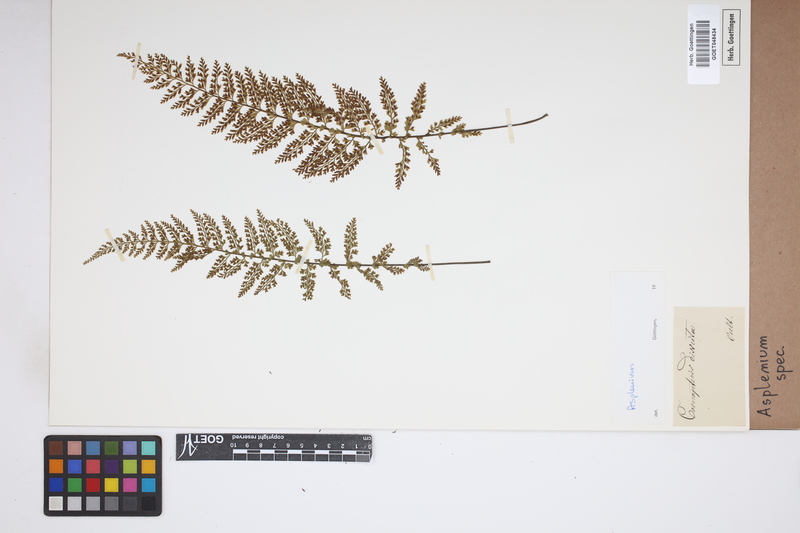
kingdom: Plantae
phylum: Tracheophyta
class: Polypodiopsida
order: Polypodiales
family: Aspleniaceae
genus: Asplenium
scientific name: Asplenium
